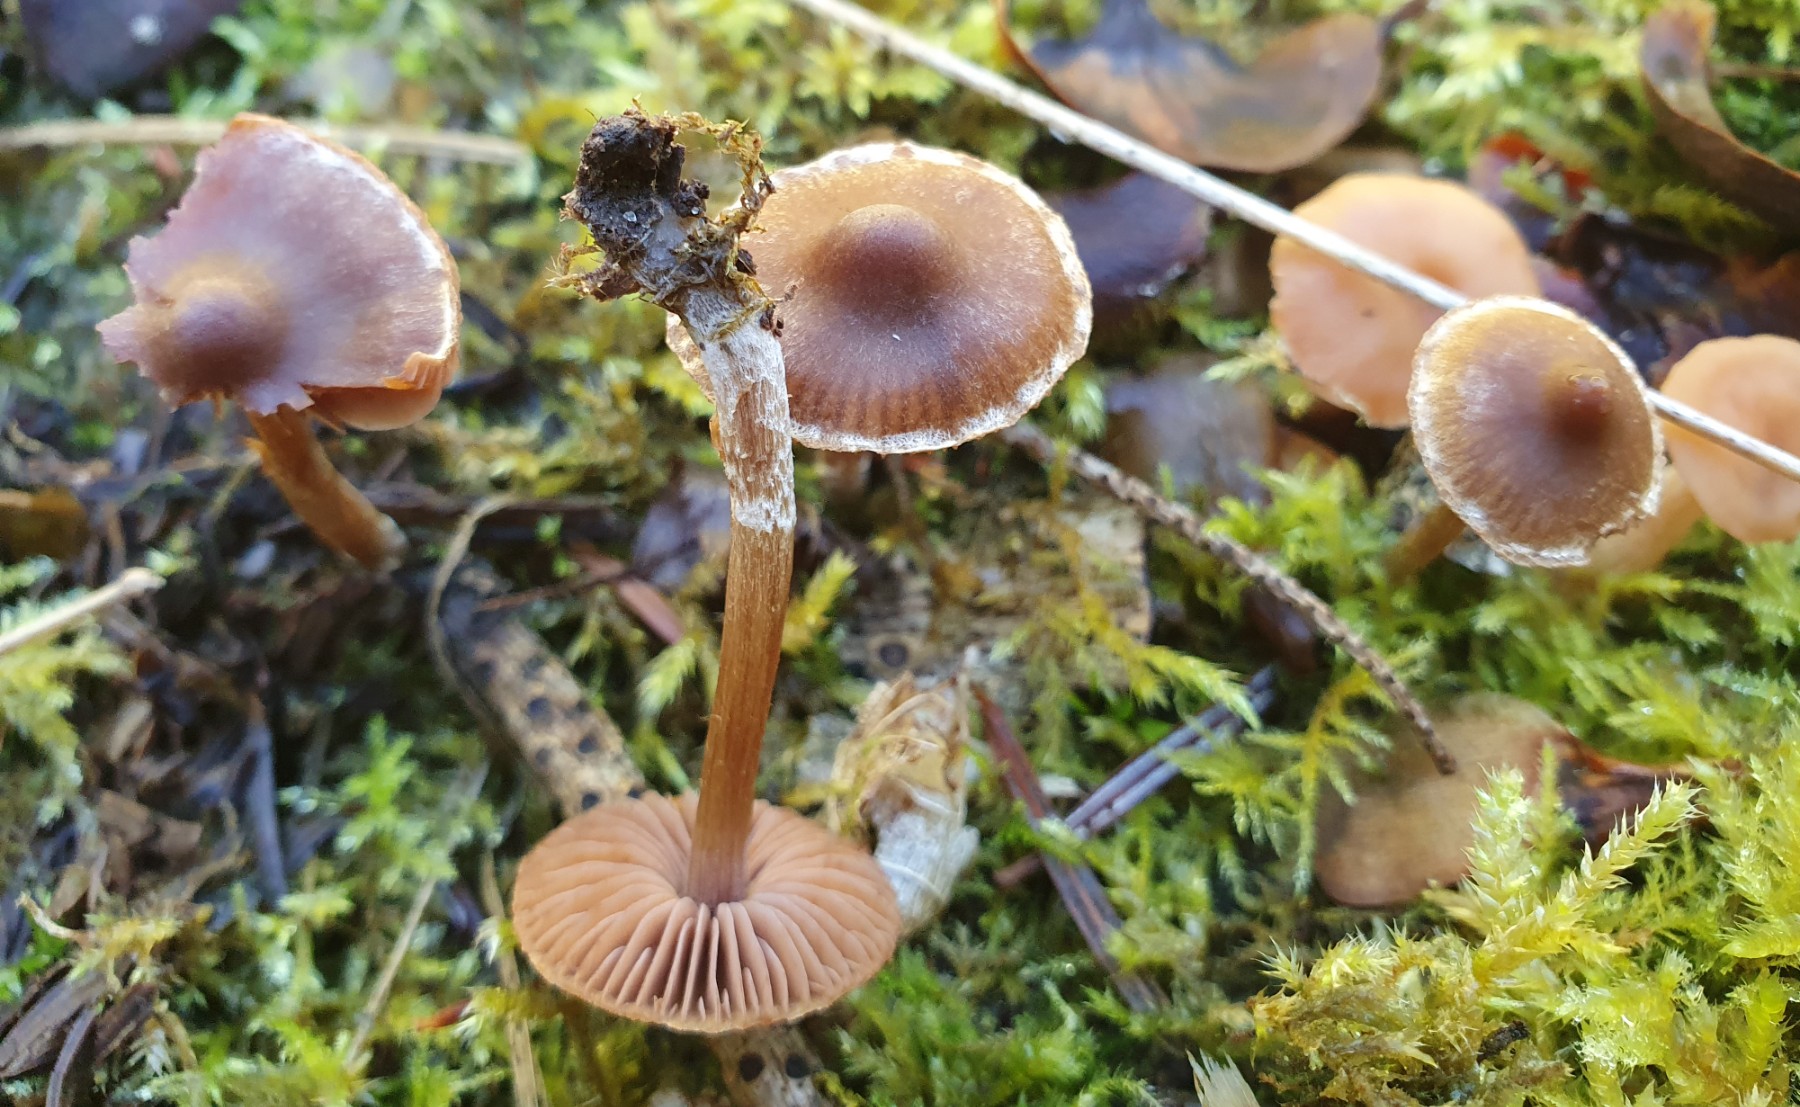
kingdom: Fungi
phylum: Basidiomycota
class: Agaricomycetes
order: Agaricales
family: Cortinariaceae
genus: Cortinarius
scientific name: Cortinarius
